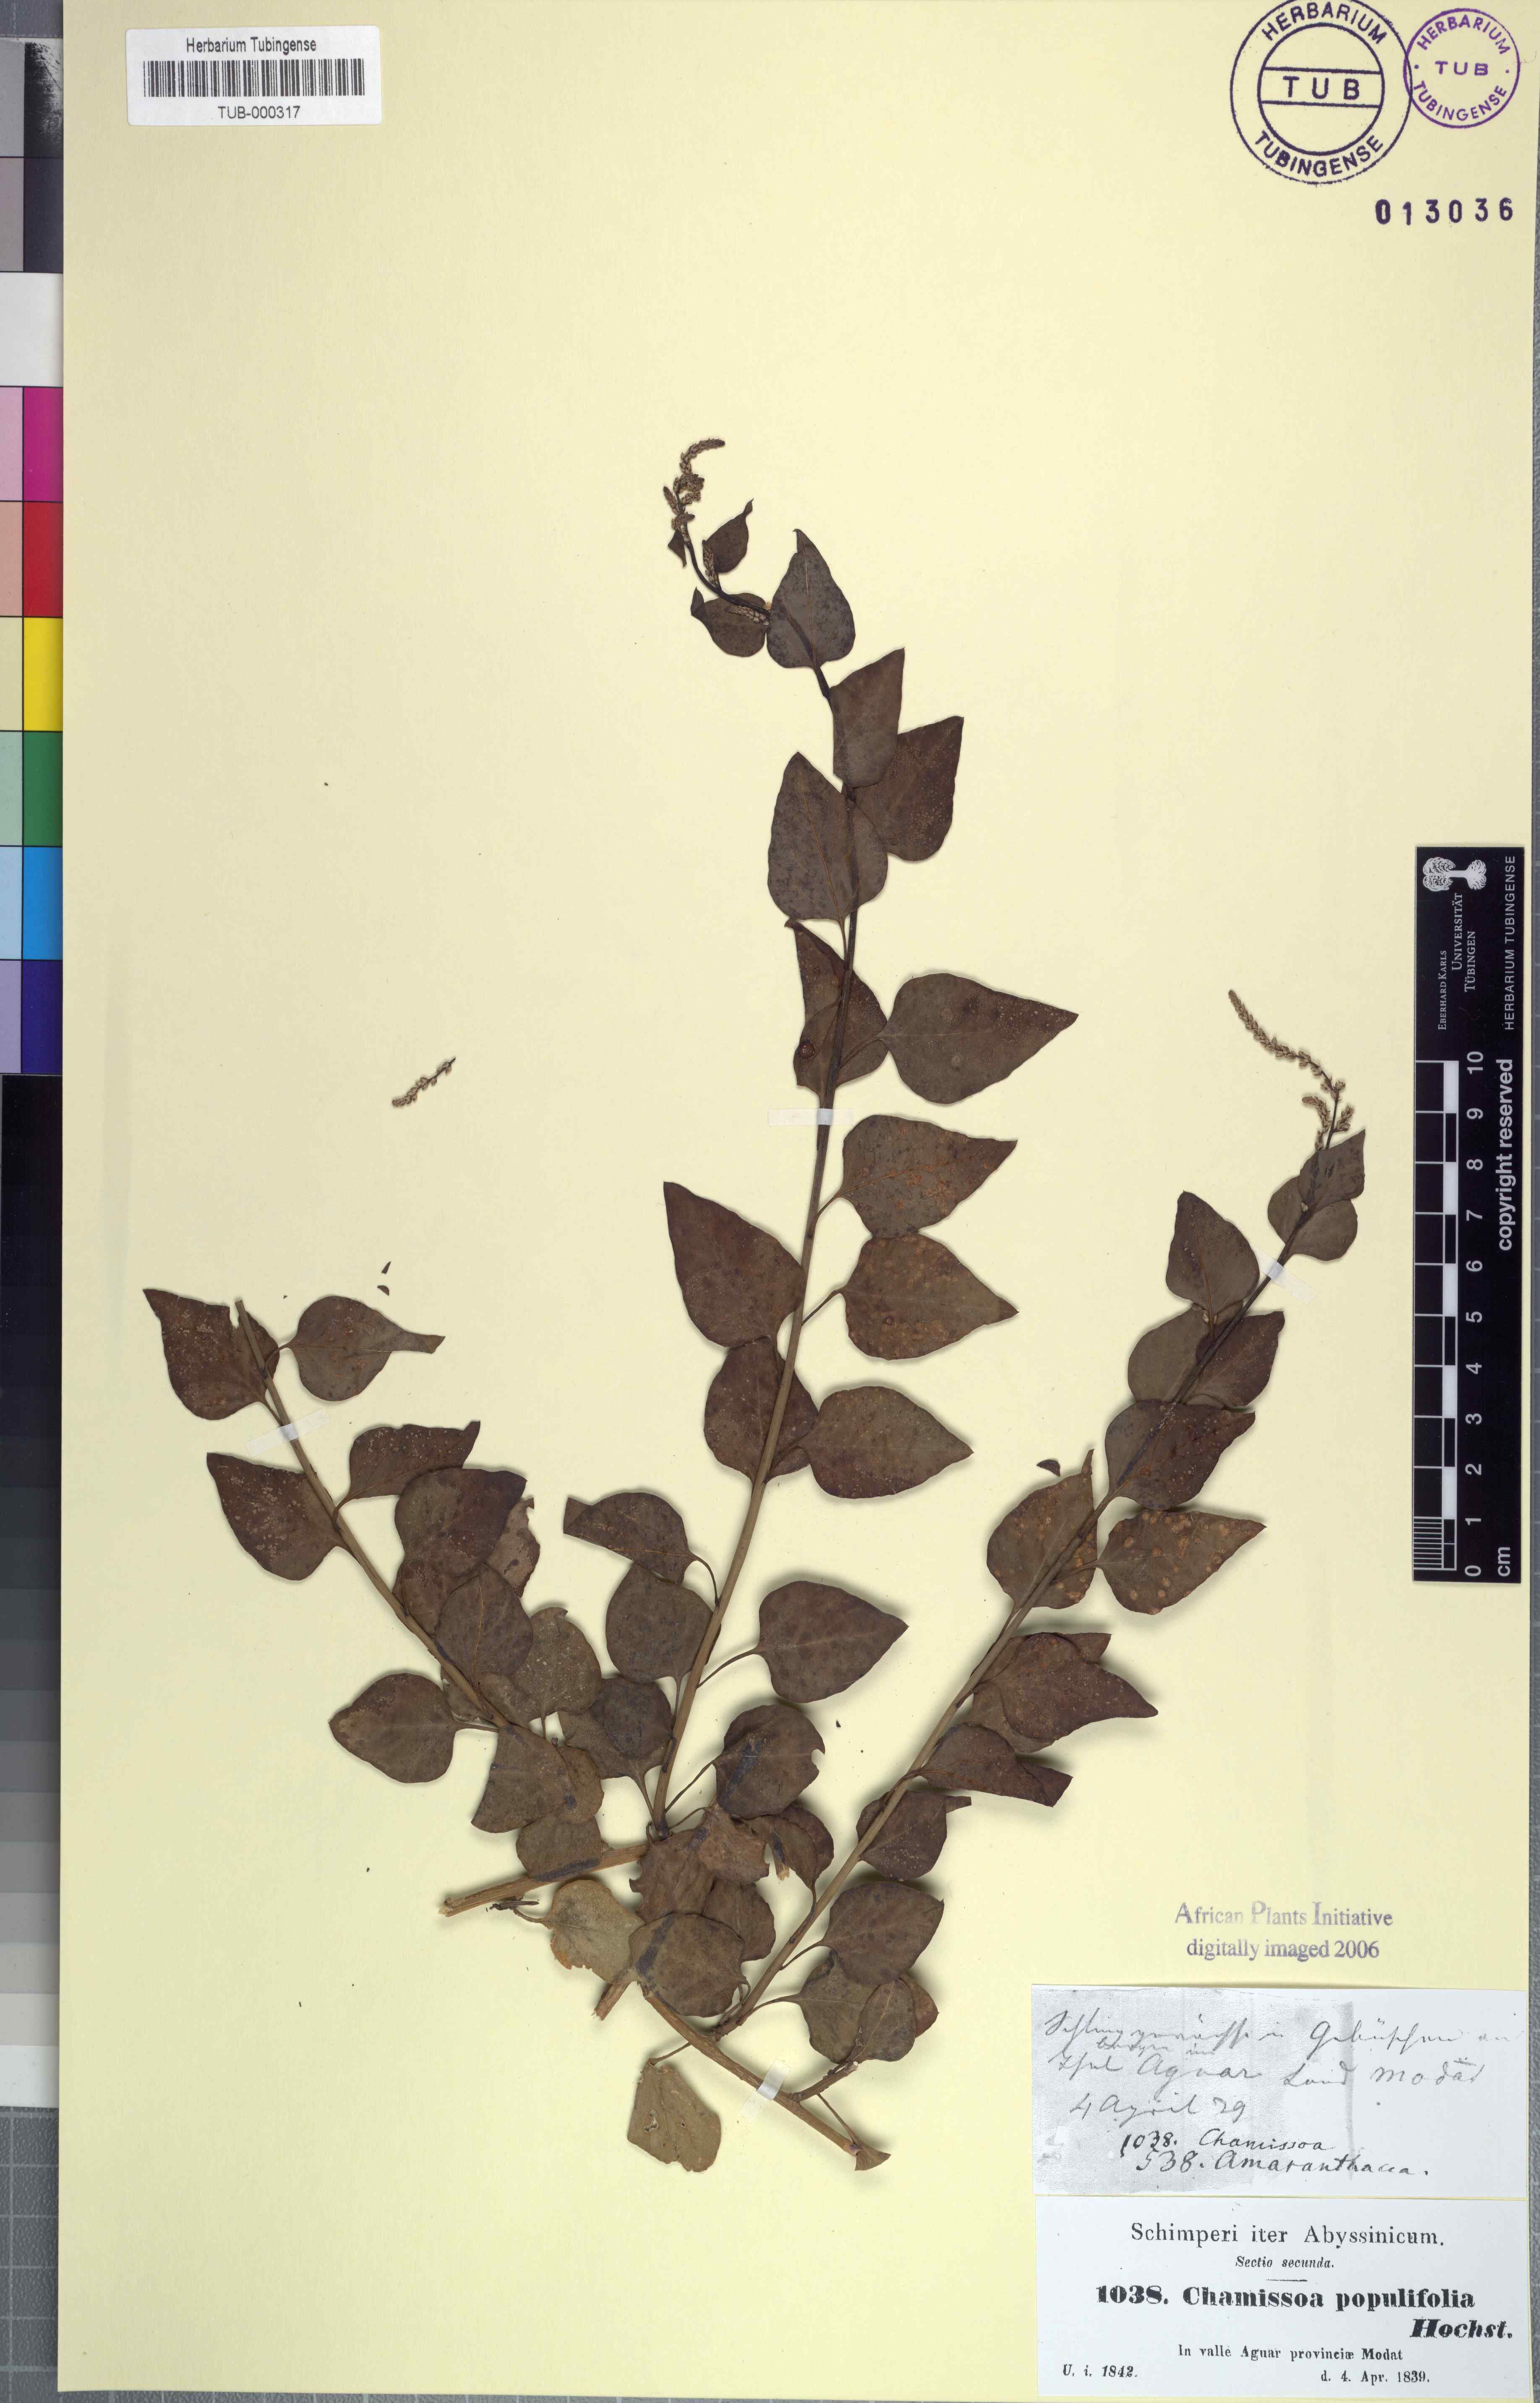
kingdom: Plantae
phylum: Tracheophyta
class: Magnoliopsida
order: Caryophyllales
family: Amaranthaceae
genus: Celosia
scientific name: Celosia polystachya
